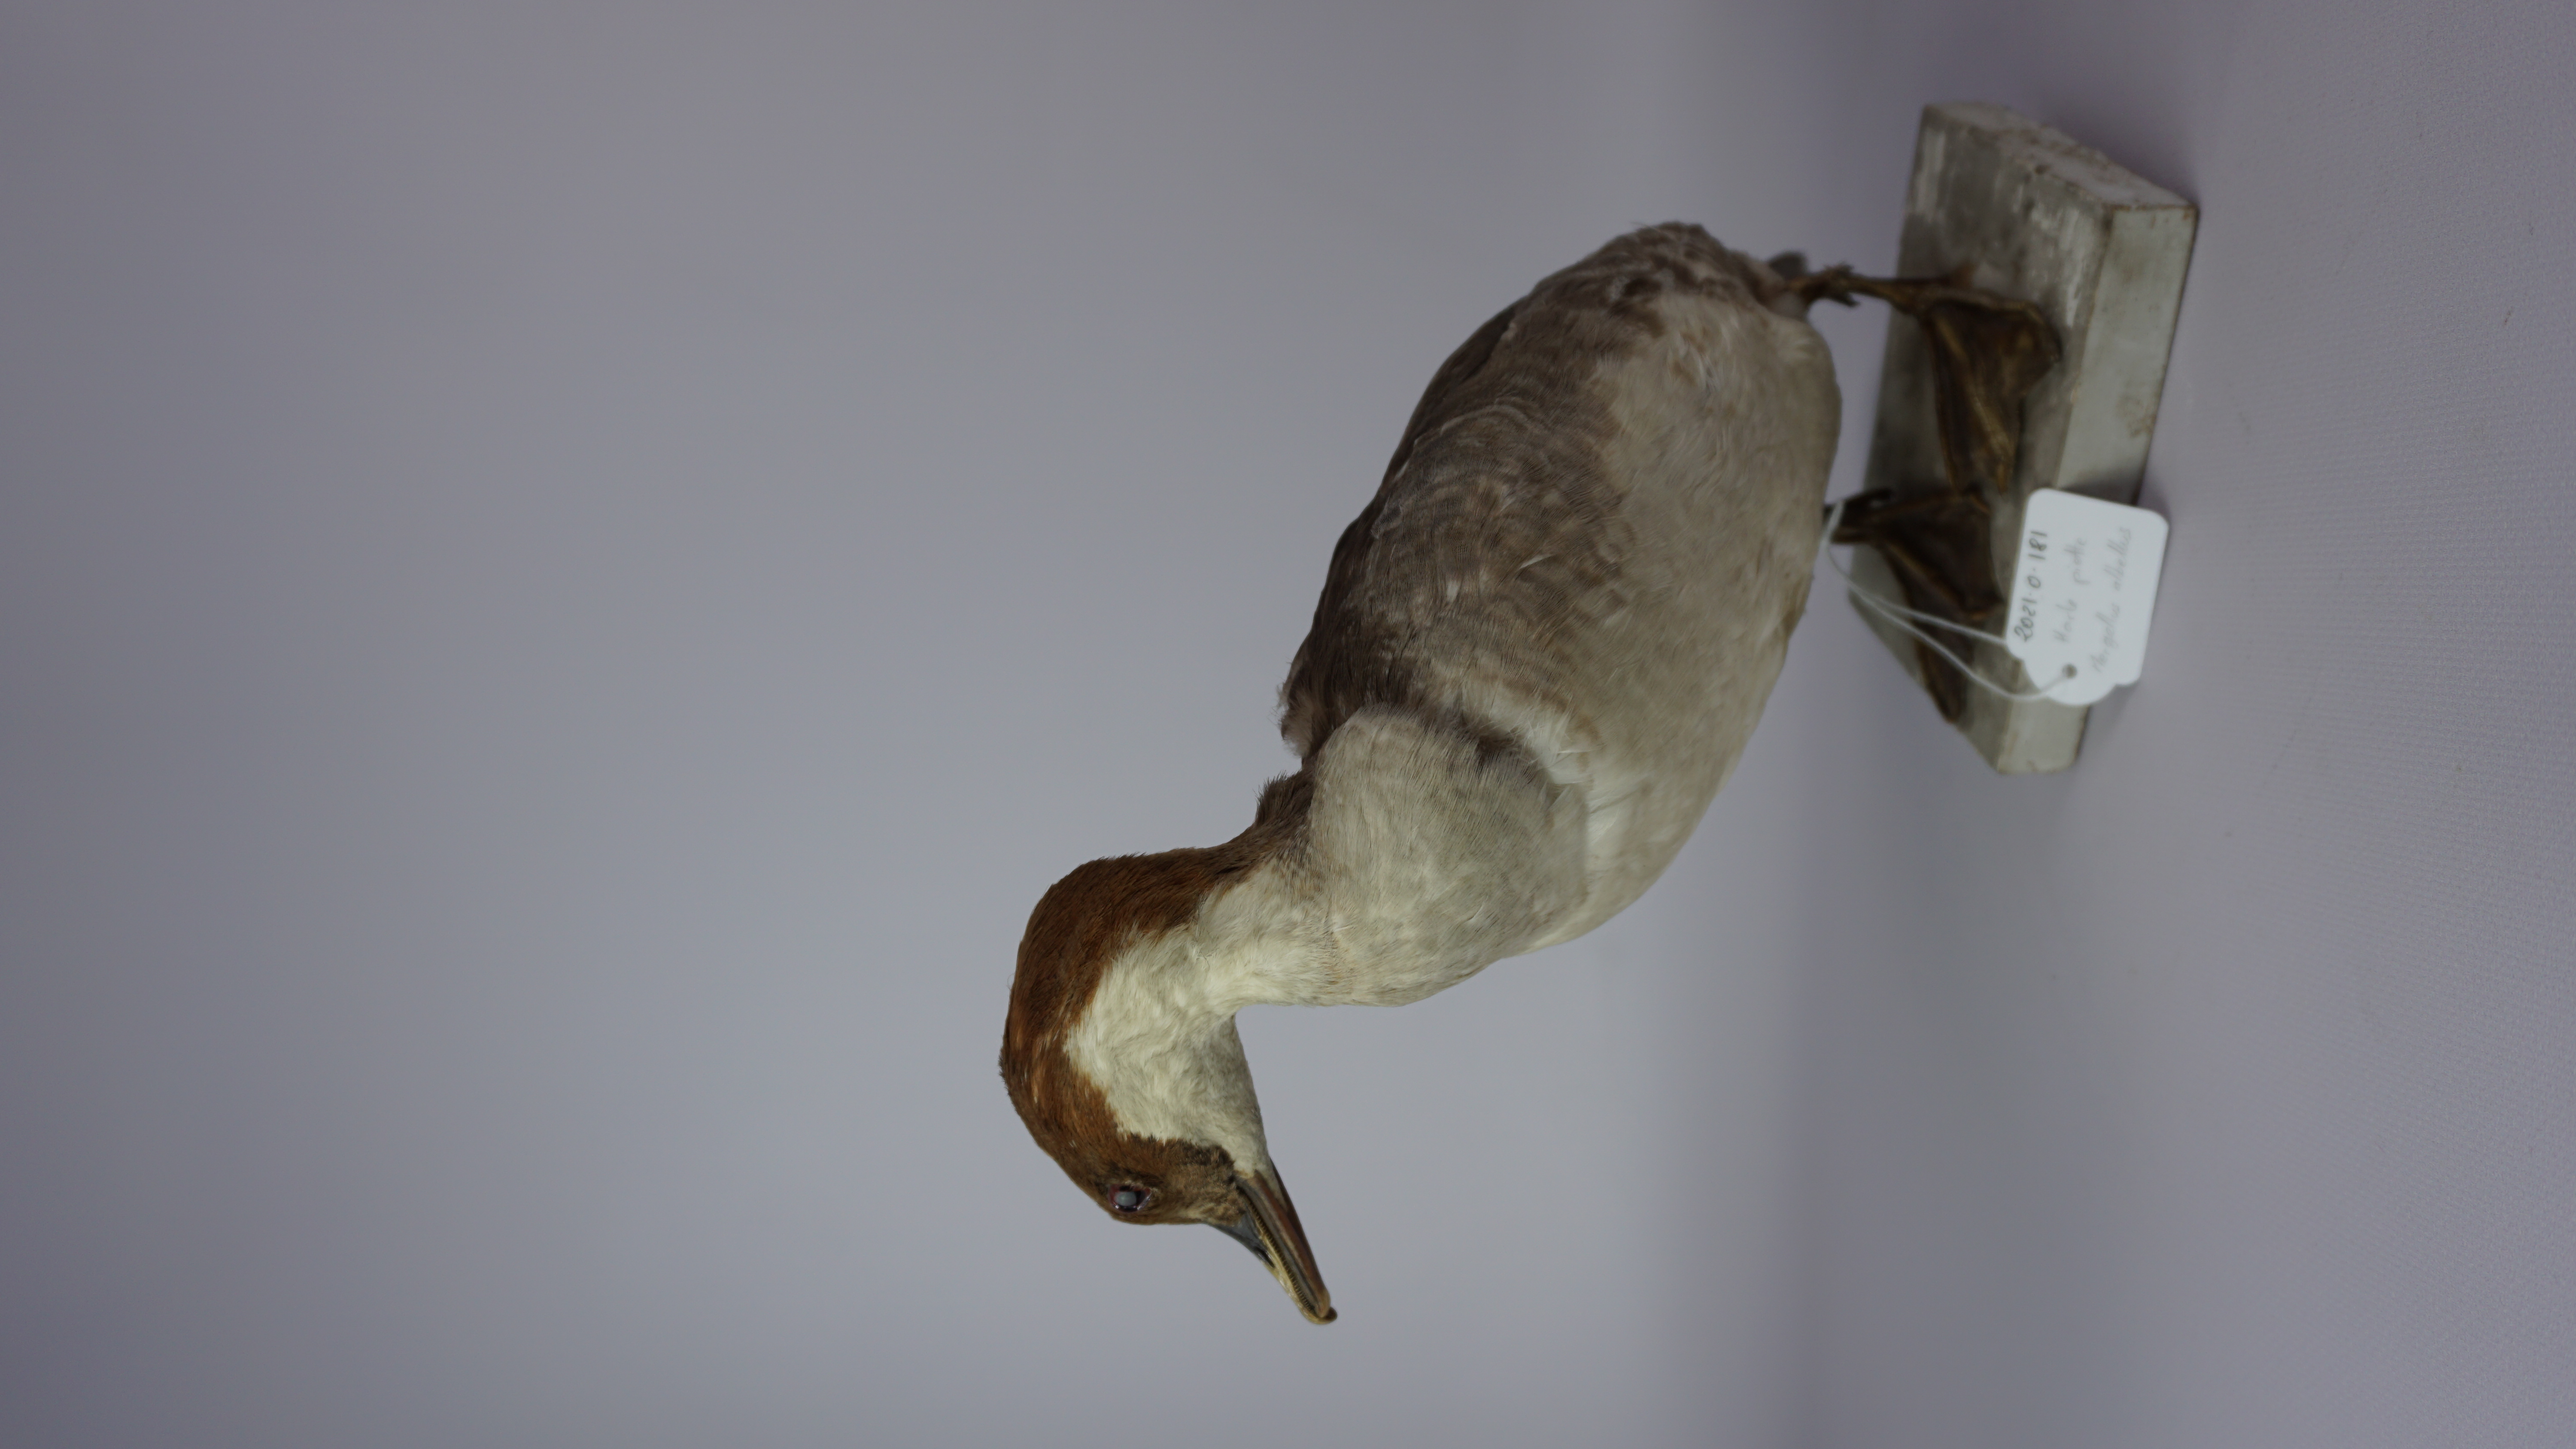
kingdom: Animalia
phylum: Chordata
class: Aves
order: Anseriformes
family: Anatidae
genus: Mergellus
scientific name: Mergellus albellus
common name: Smew
